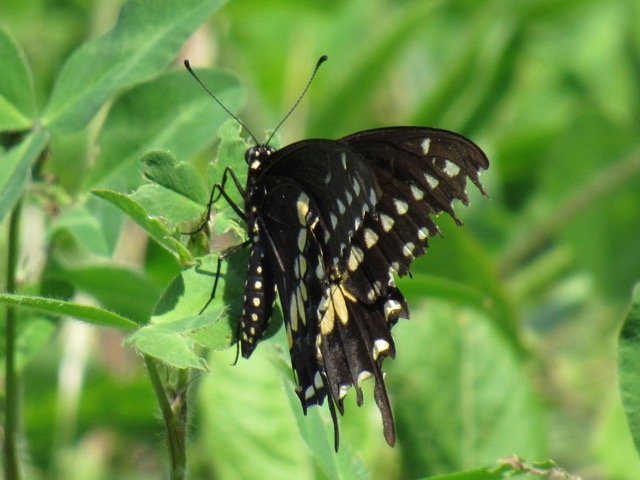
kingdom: Animalia
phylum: Arthropoda
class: Insecta
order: Lepidoptera
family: Papilionidae
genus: Papilio
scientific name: Papilio polyxenes
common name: Black Swallowtail
